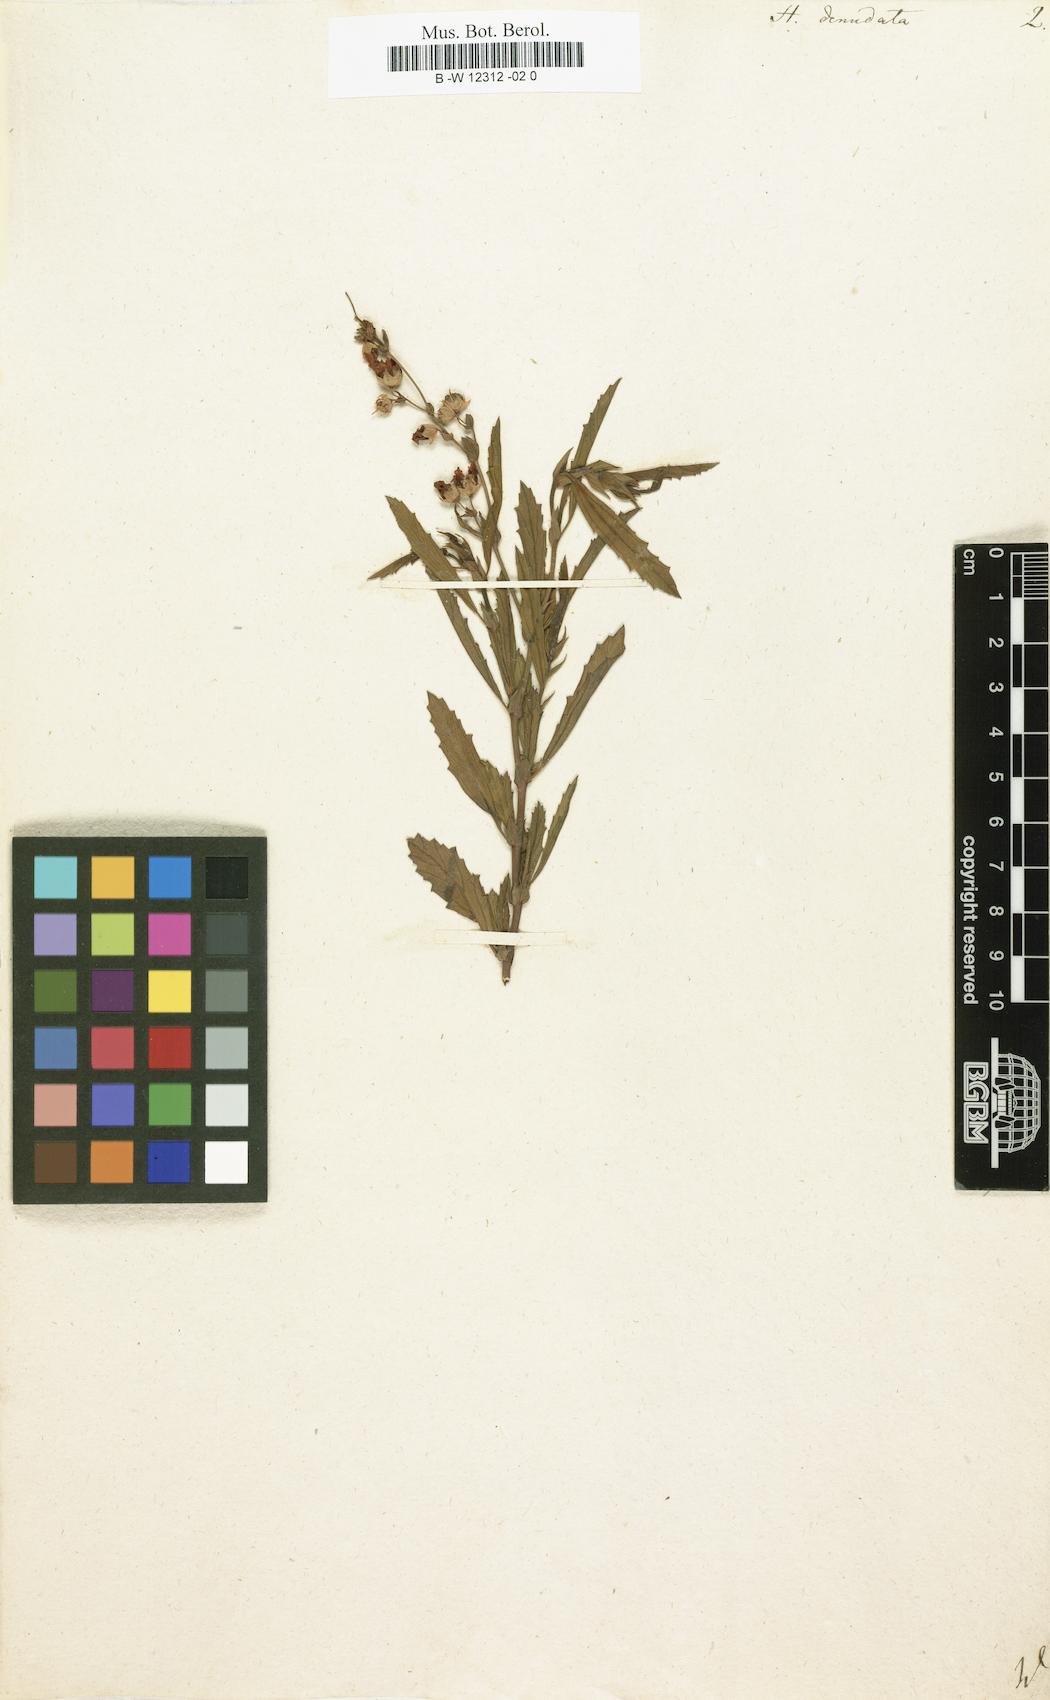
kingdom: Plantae
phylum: Tracheophyta
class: Magnoliopsida
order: Malvales
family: Malvaceae
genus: Hermannia
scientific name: Hermannia denudata
